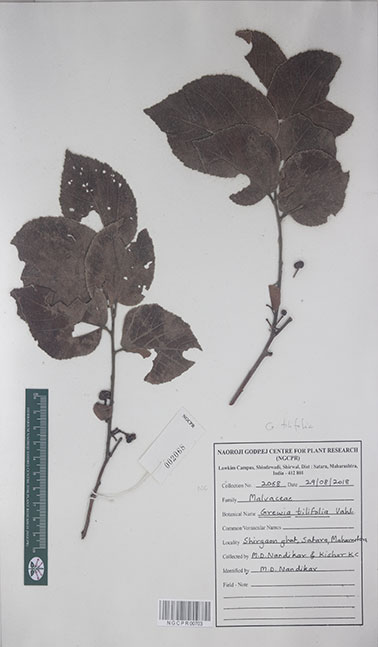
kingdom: Plantae
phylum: Tracheophyta
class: Magnoliopsida
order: Malvales
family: Malvaceae
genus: Grewia
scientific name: Grewia tiliifolia
